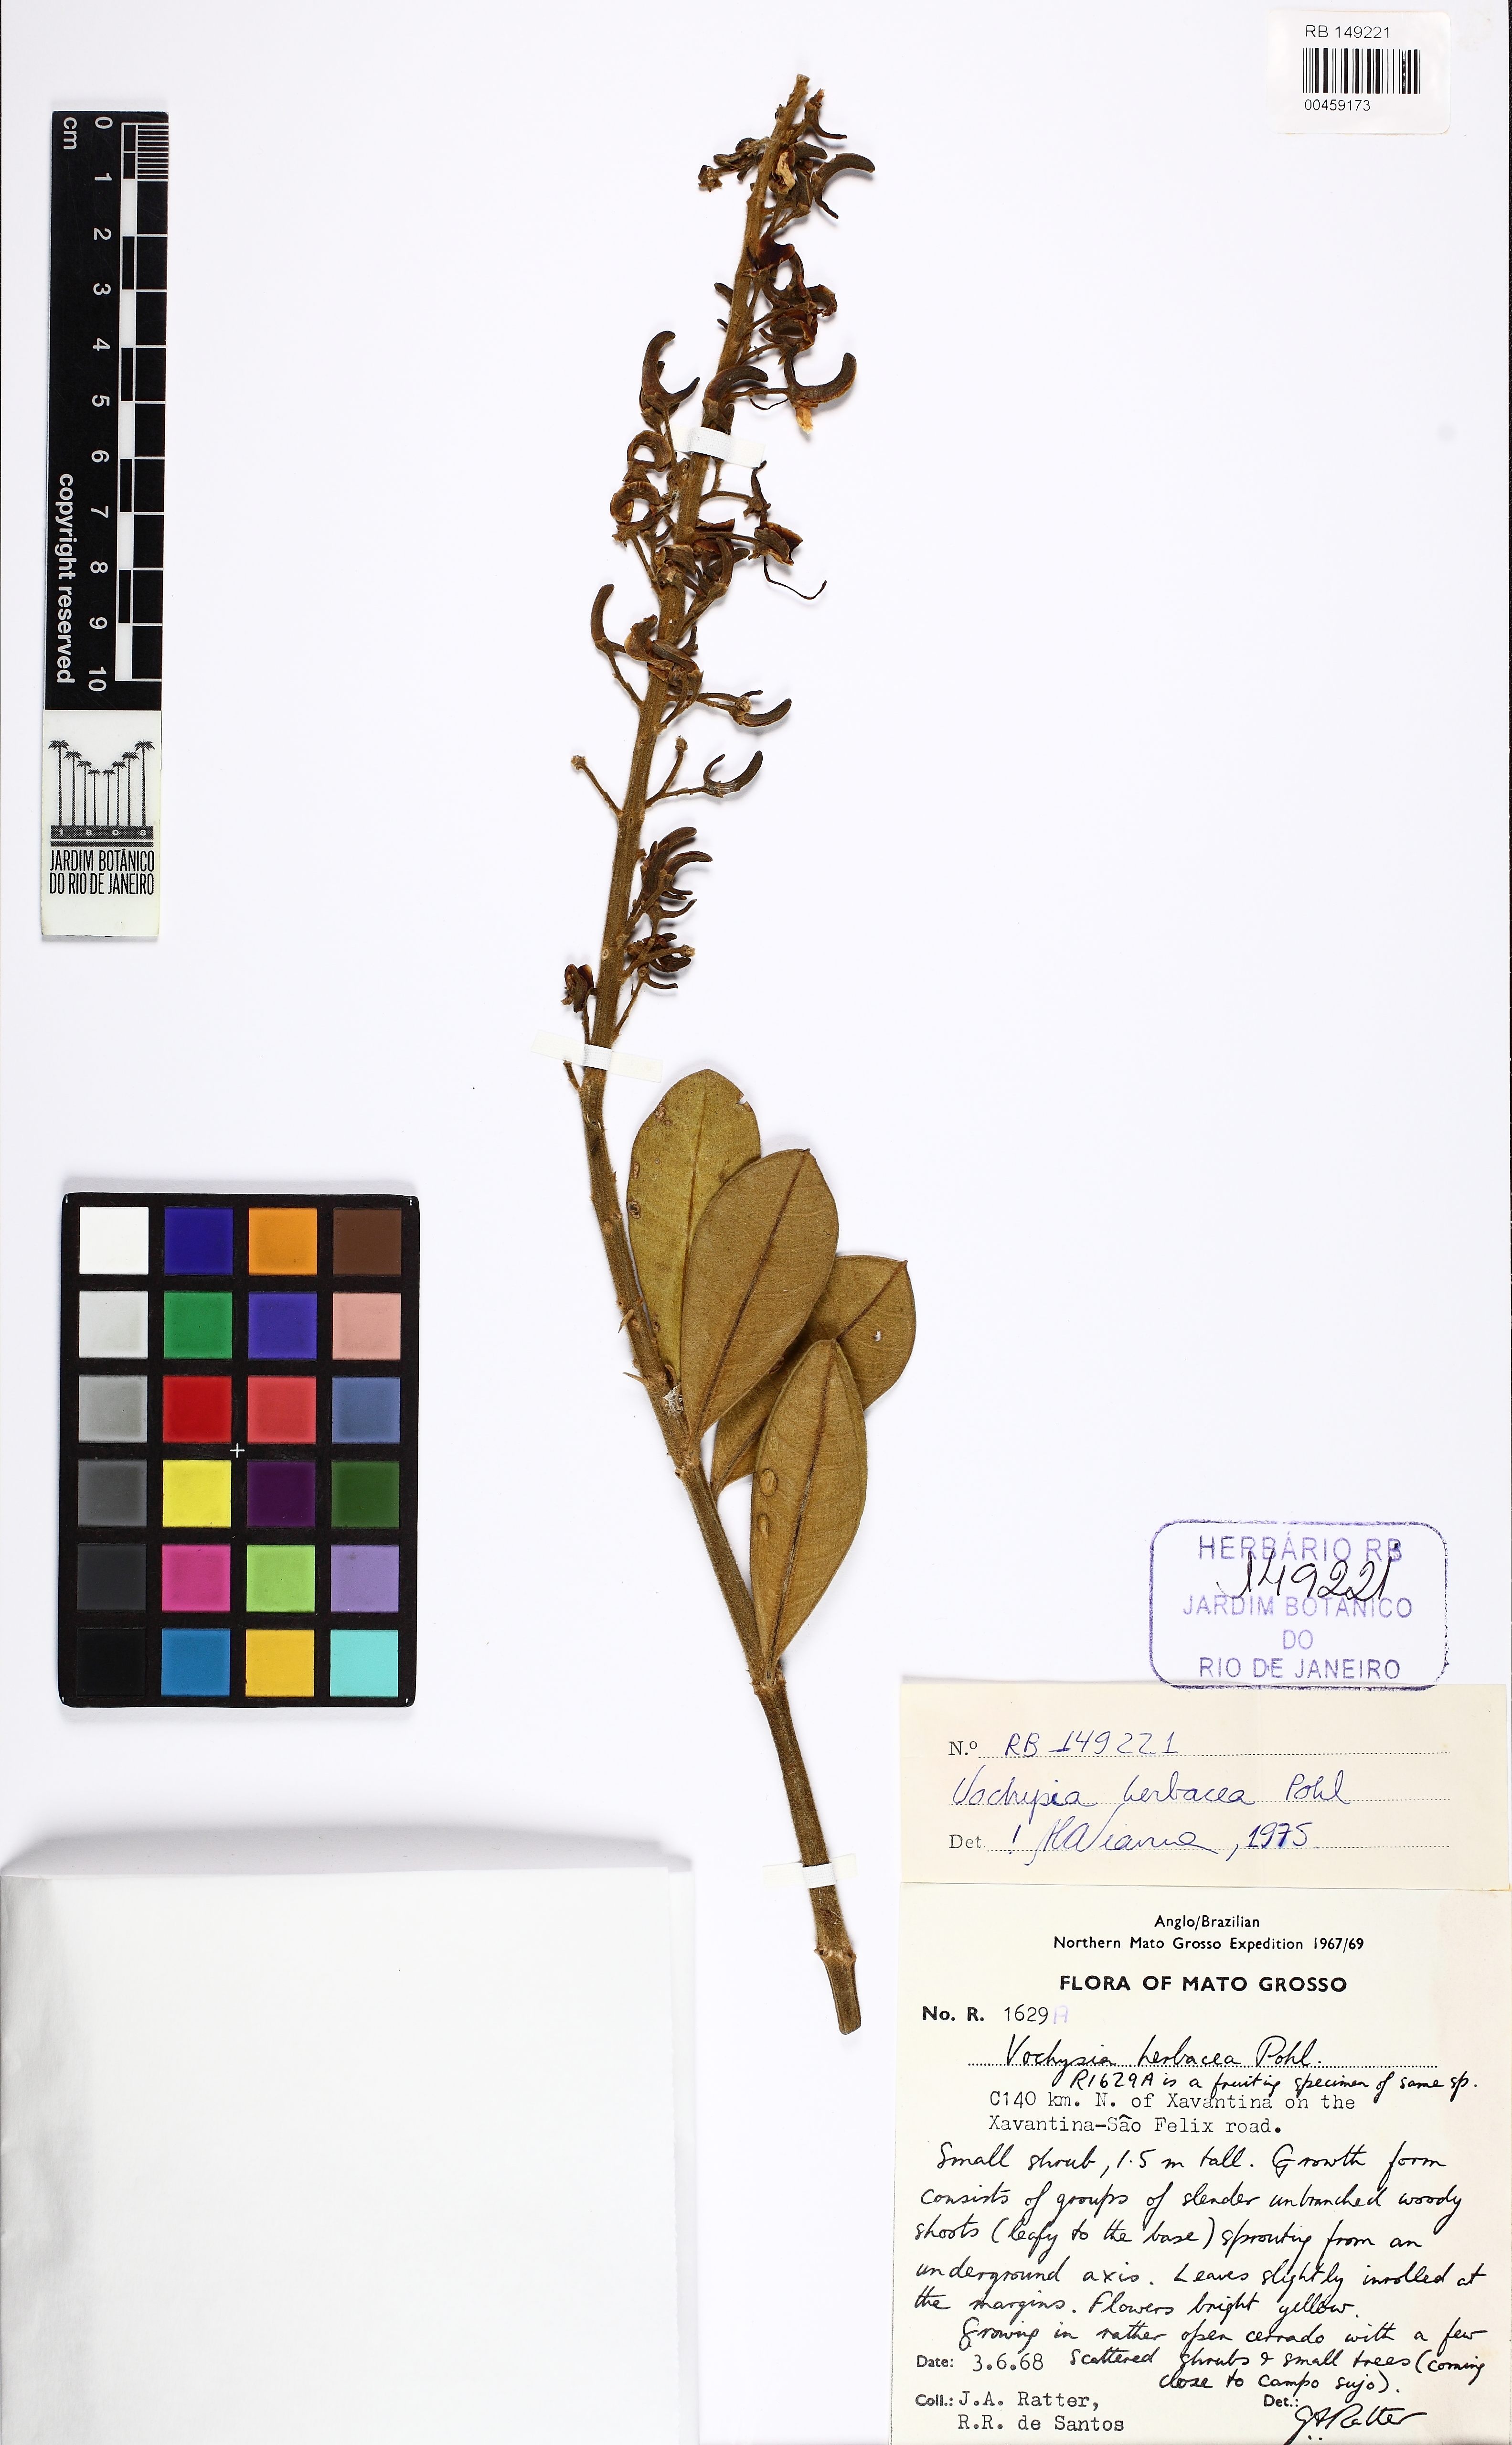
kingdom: Plantae
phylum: Tracheophyta
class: Magnoliopsida
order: Myrtales
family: Vochysiaceae
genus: Vochysia
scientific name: Vochysia herbacea
